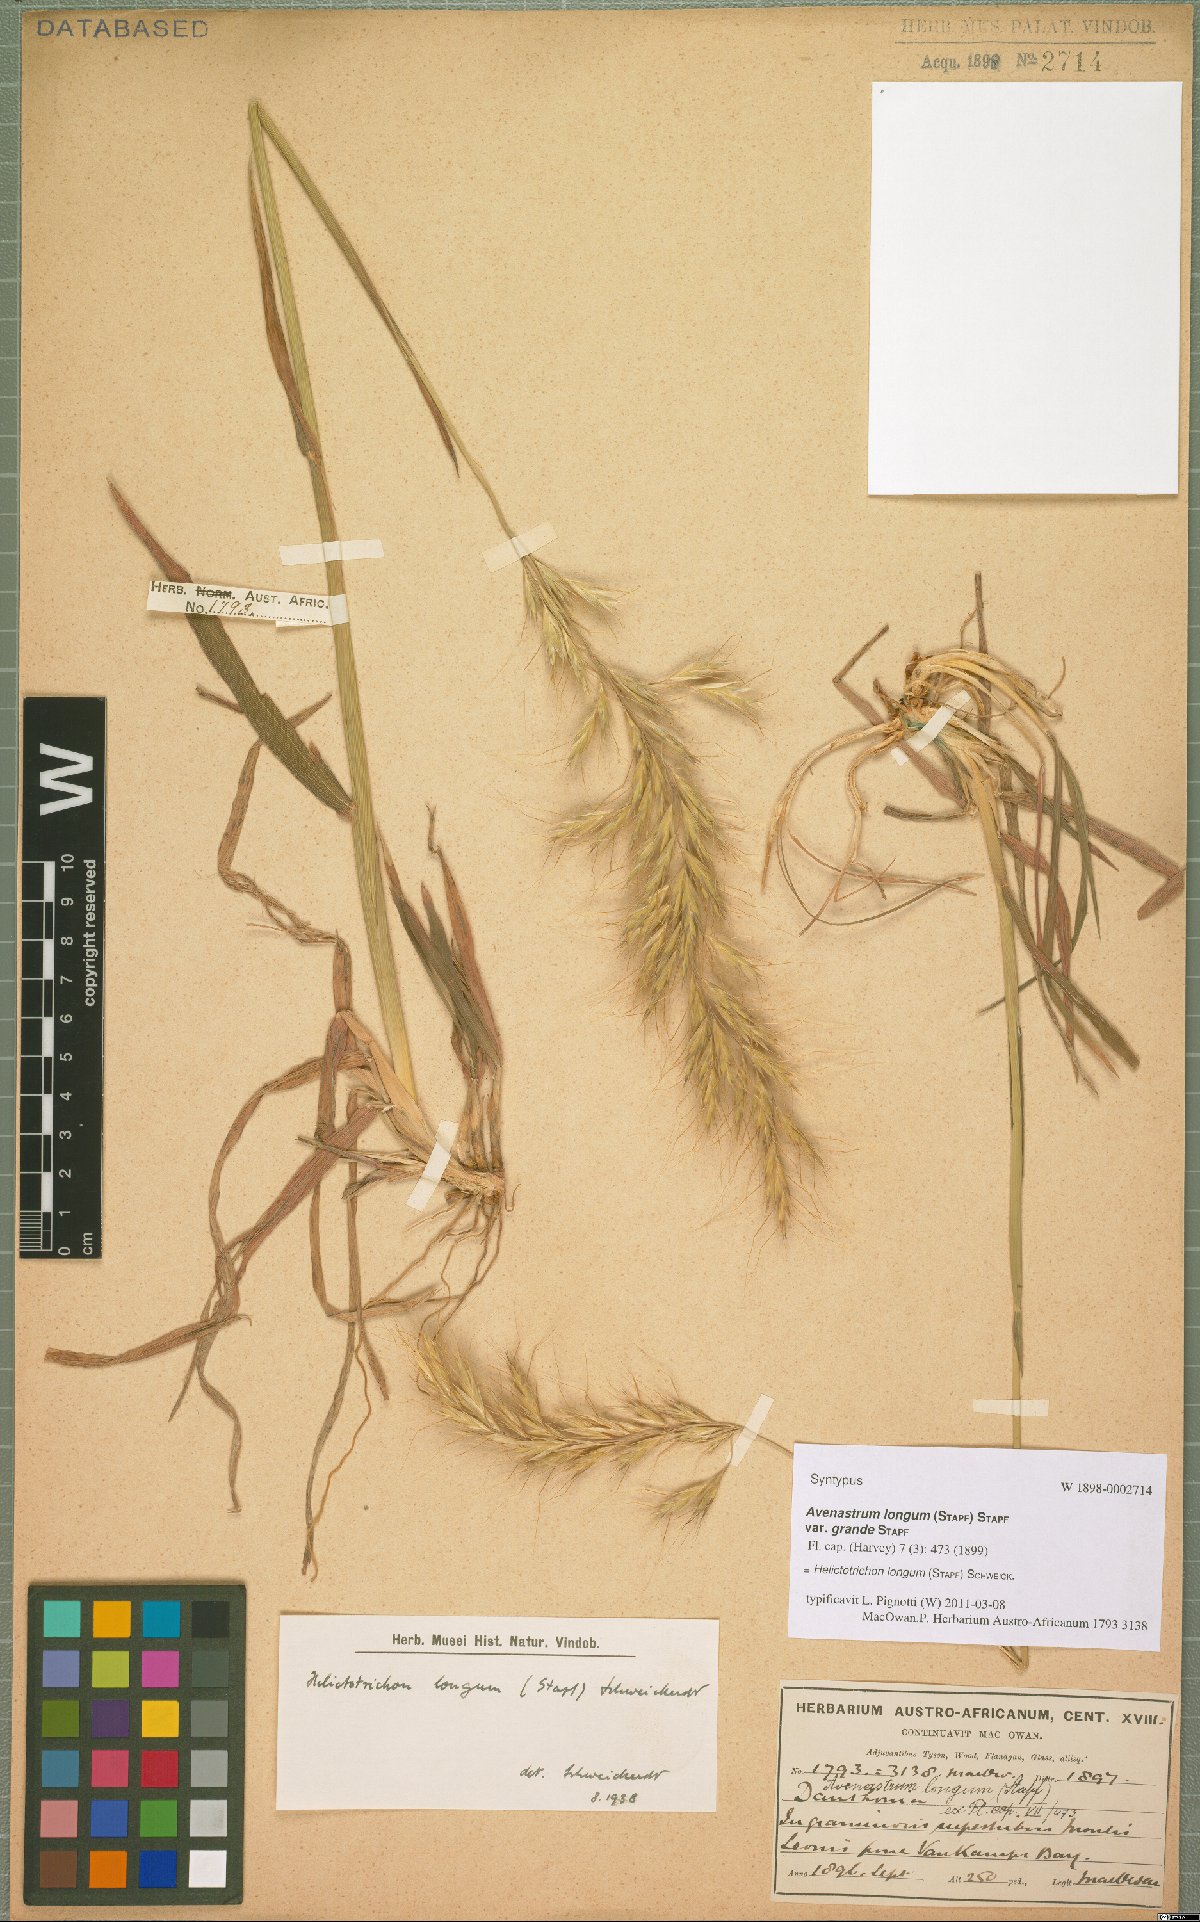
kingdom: Plantae
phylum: Tracheophyta
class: Liliopsida
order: Poales
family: Poaceae
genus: Trisetopsis
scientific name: Trisetopsis longa
